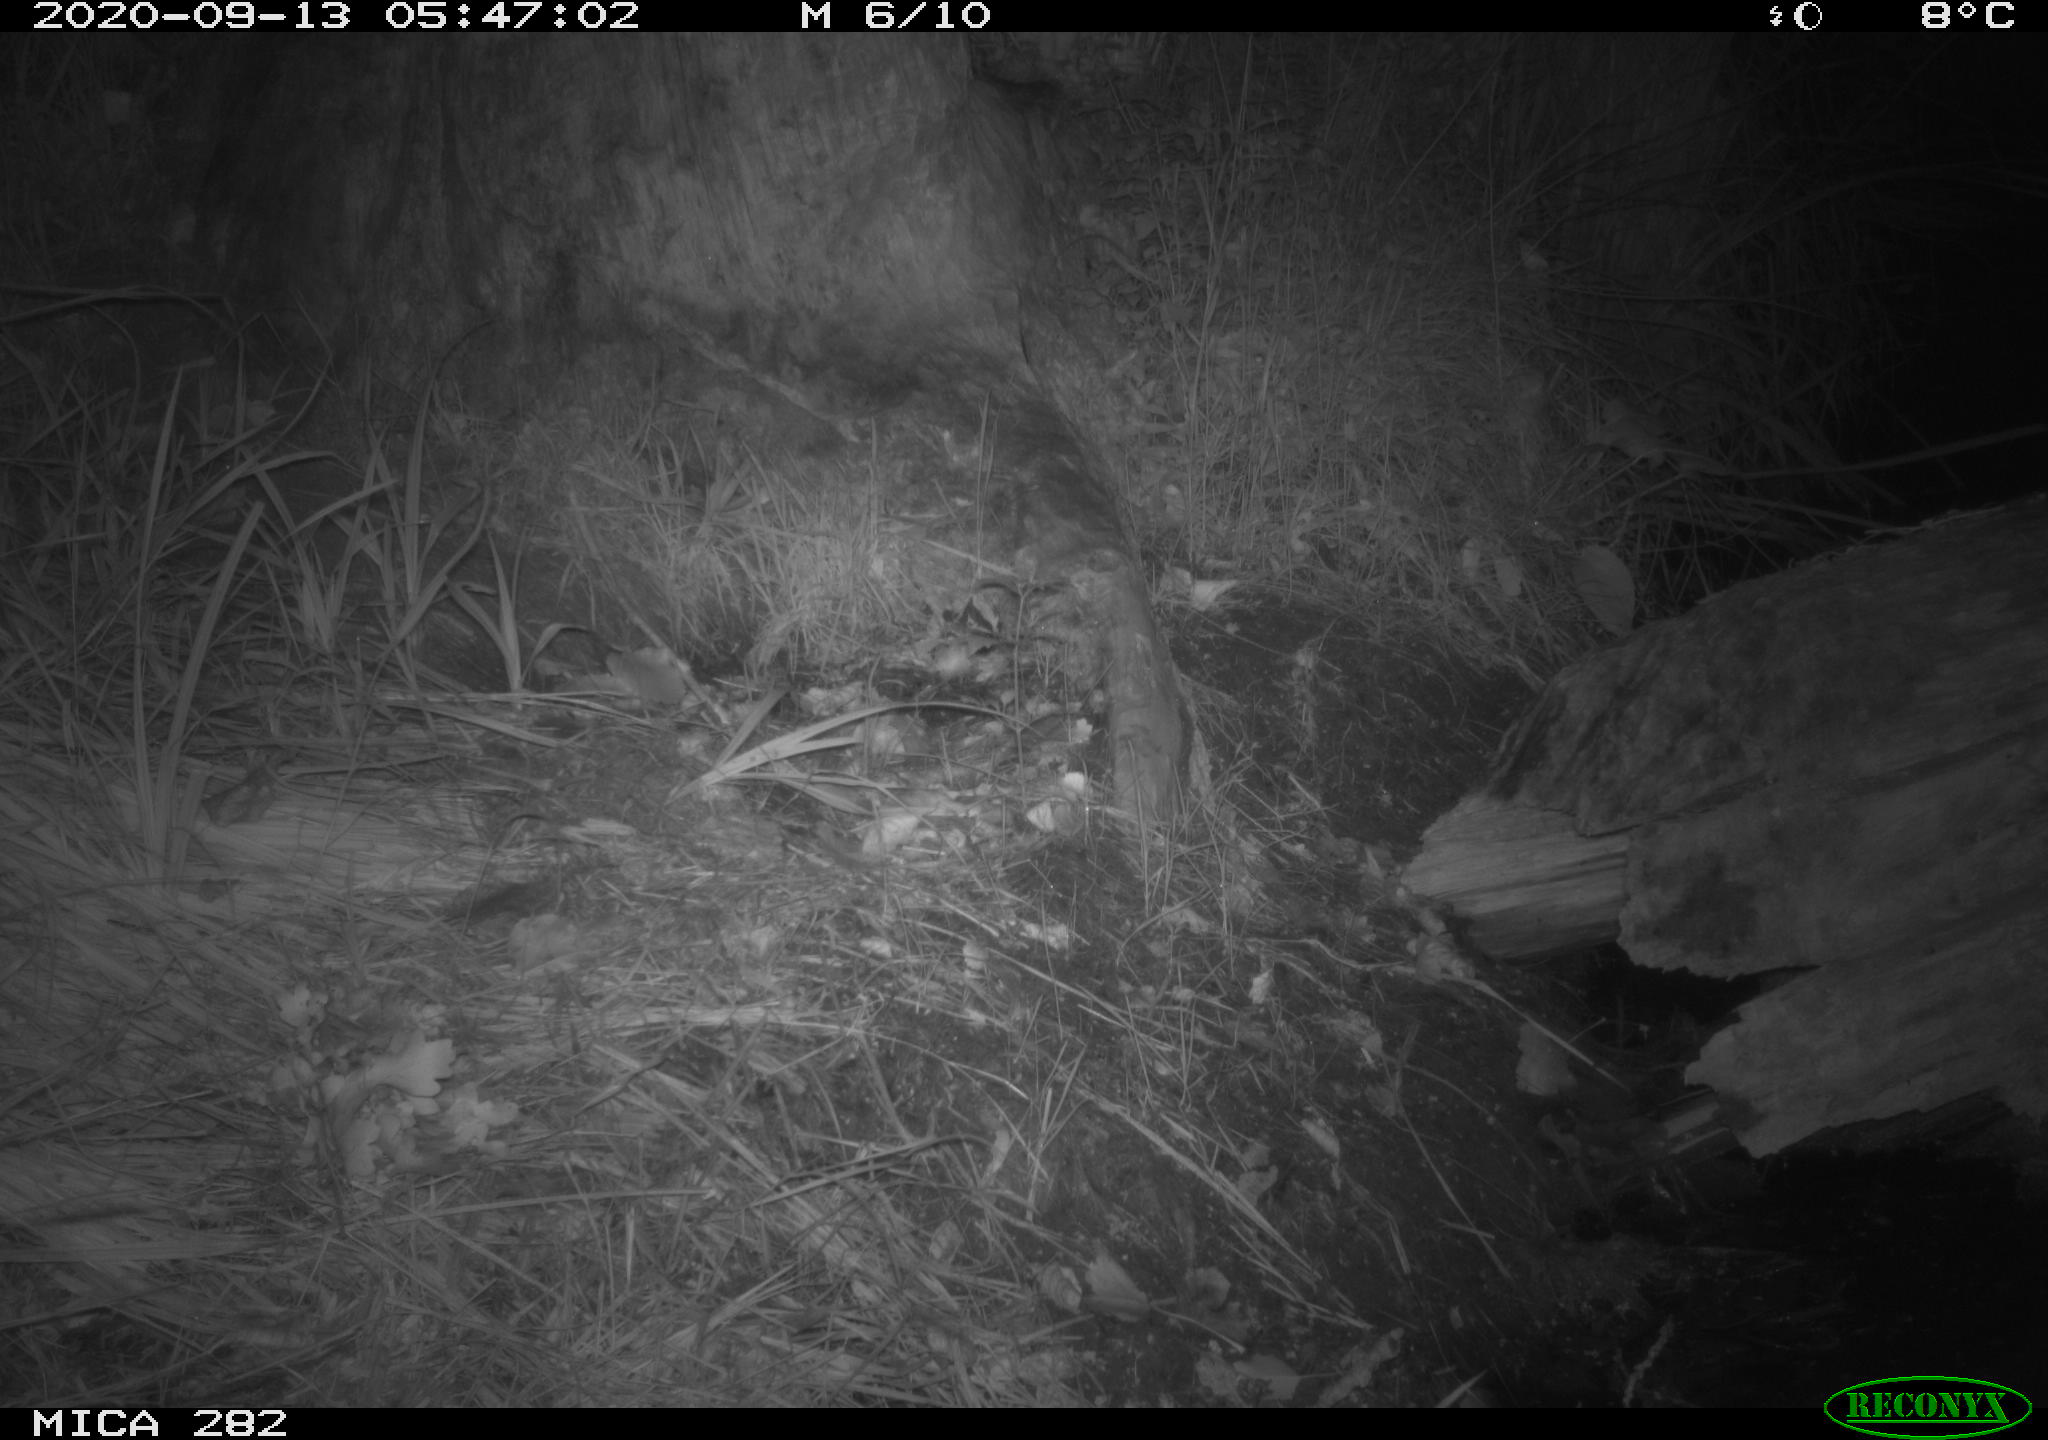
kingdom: Animalia
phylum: Chordata
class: Mammalia
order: Carnivora
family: Canidae
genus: Vulpes
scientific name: Vulpes vulpes
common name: Red fox
